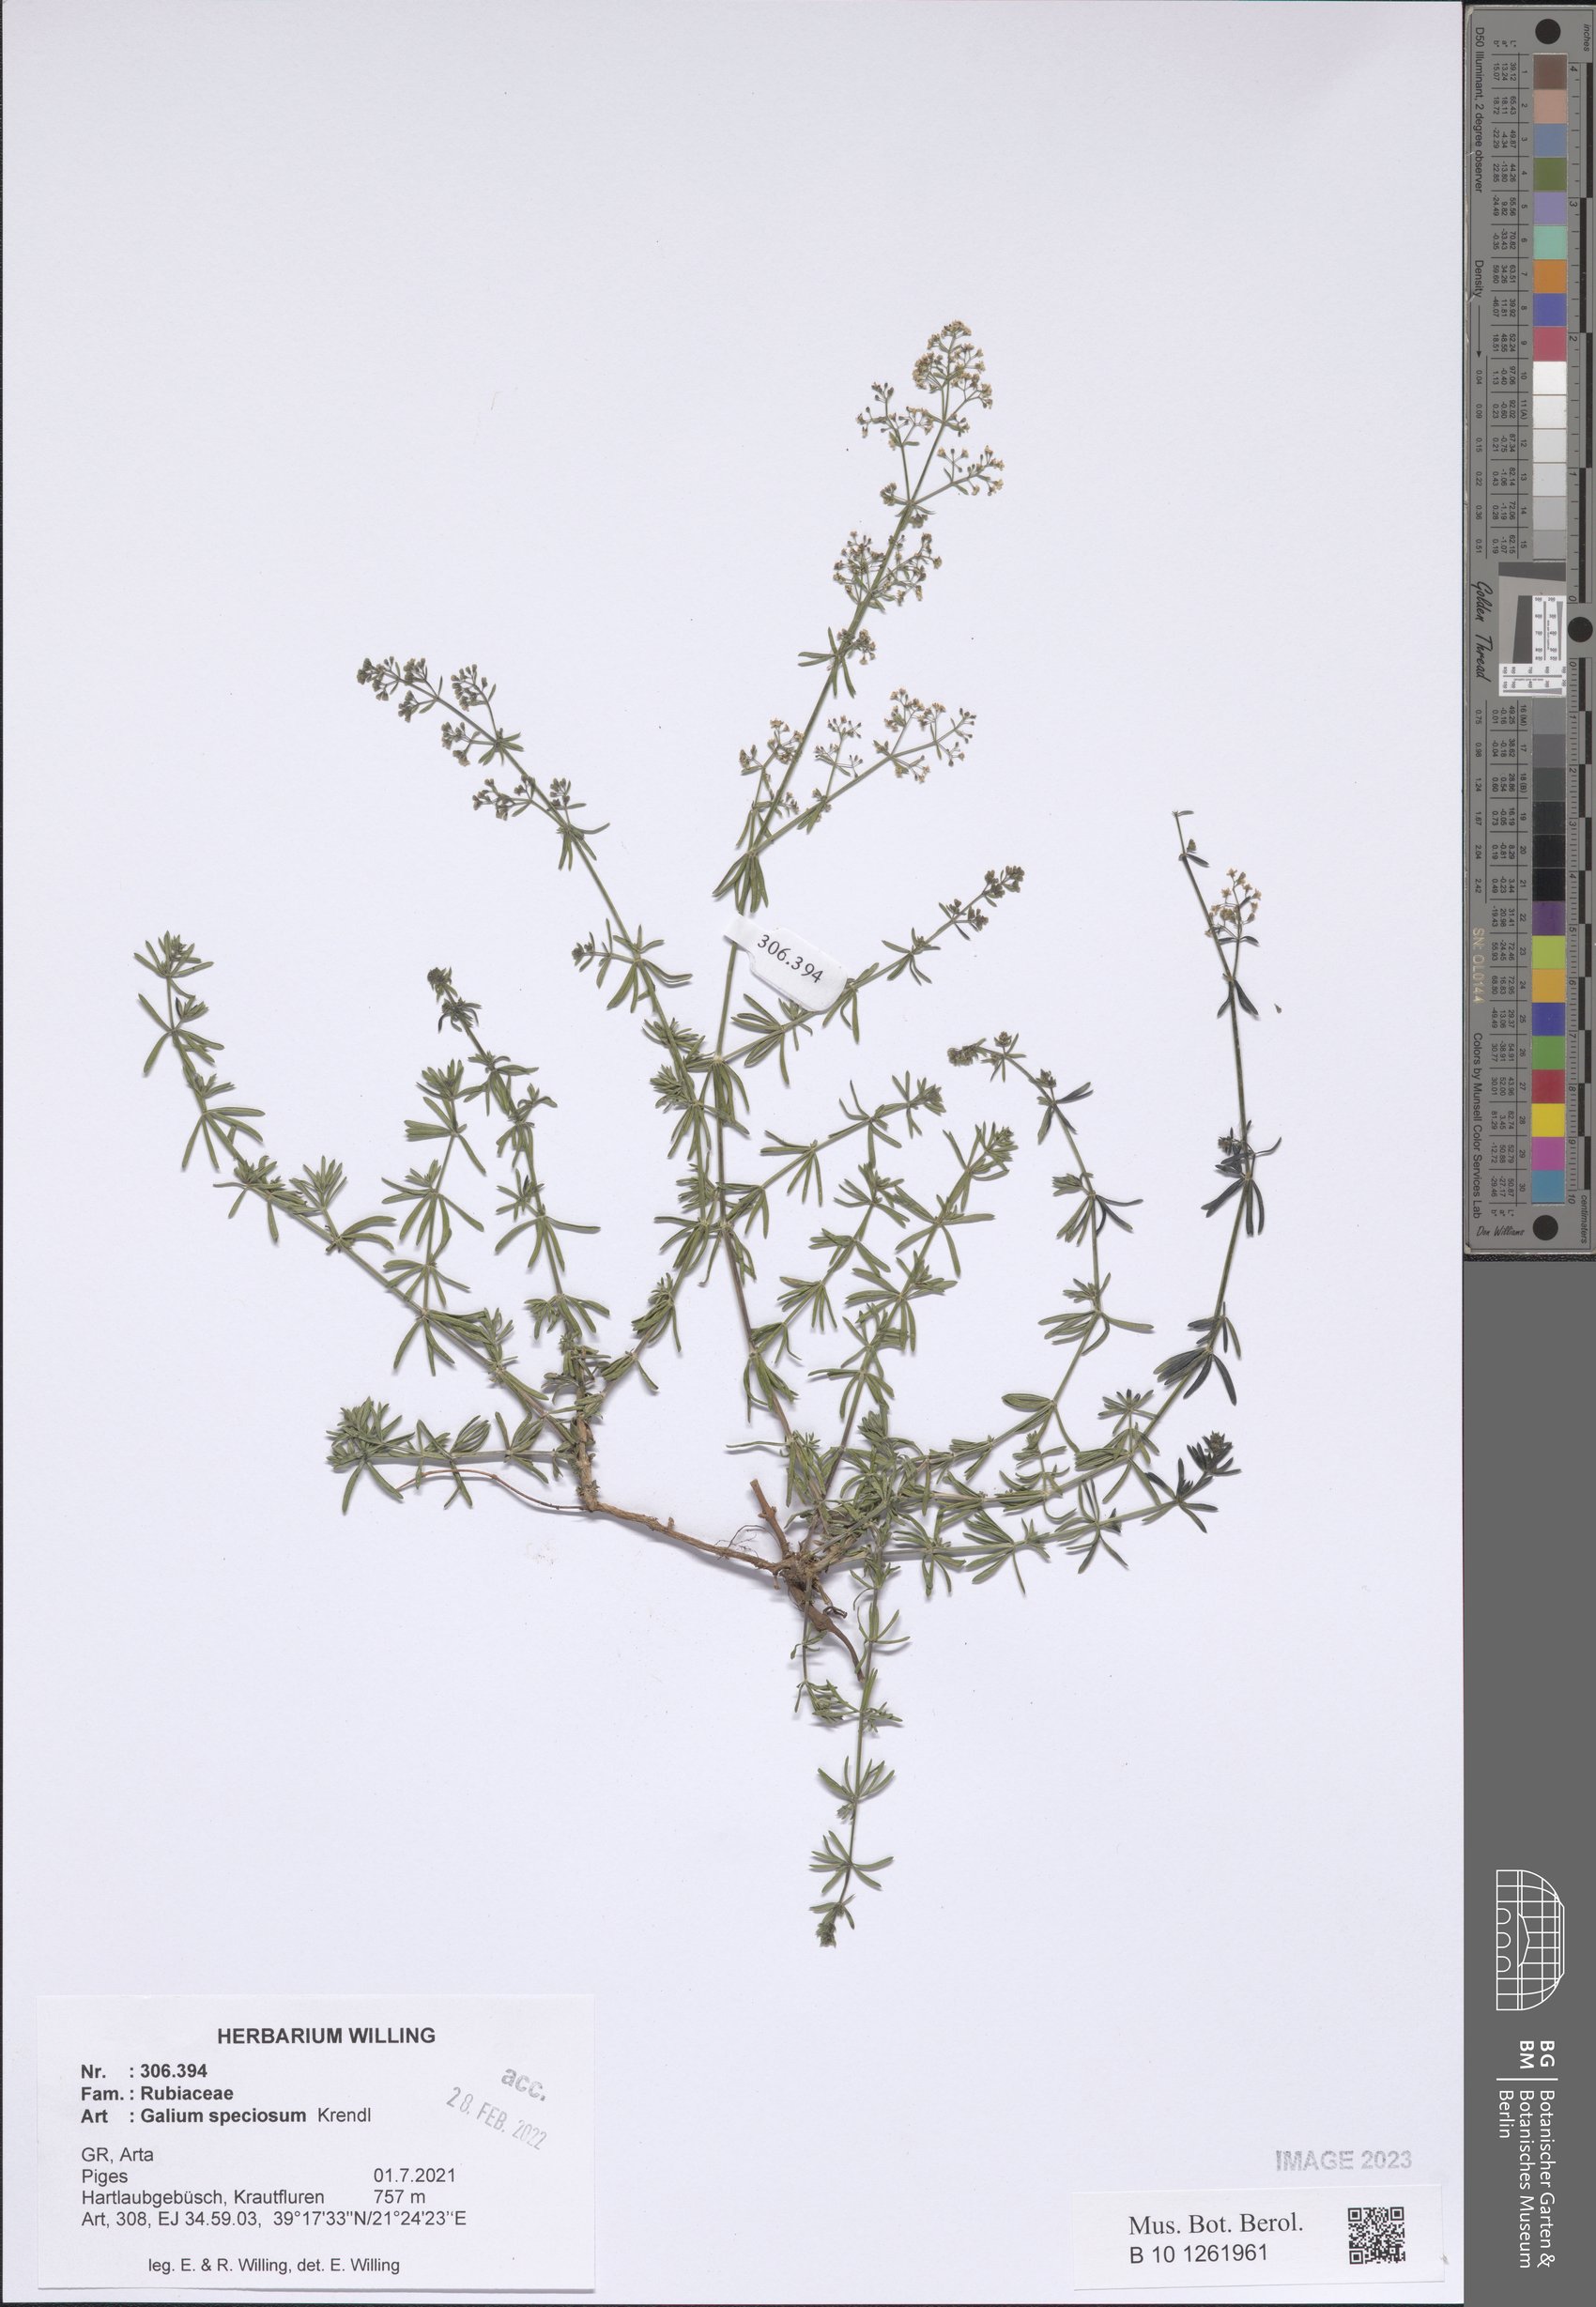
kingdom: Plantae
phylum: Tracheophyta
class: Magnoliopsida
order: Gentianales
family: Rubiaceae
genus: Galium
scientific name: Galium speciosum
